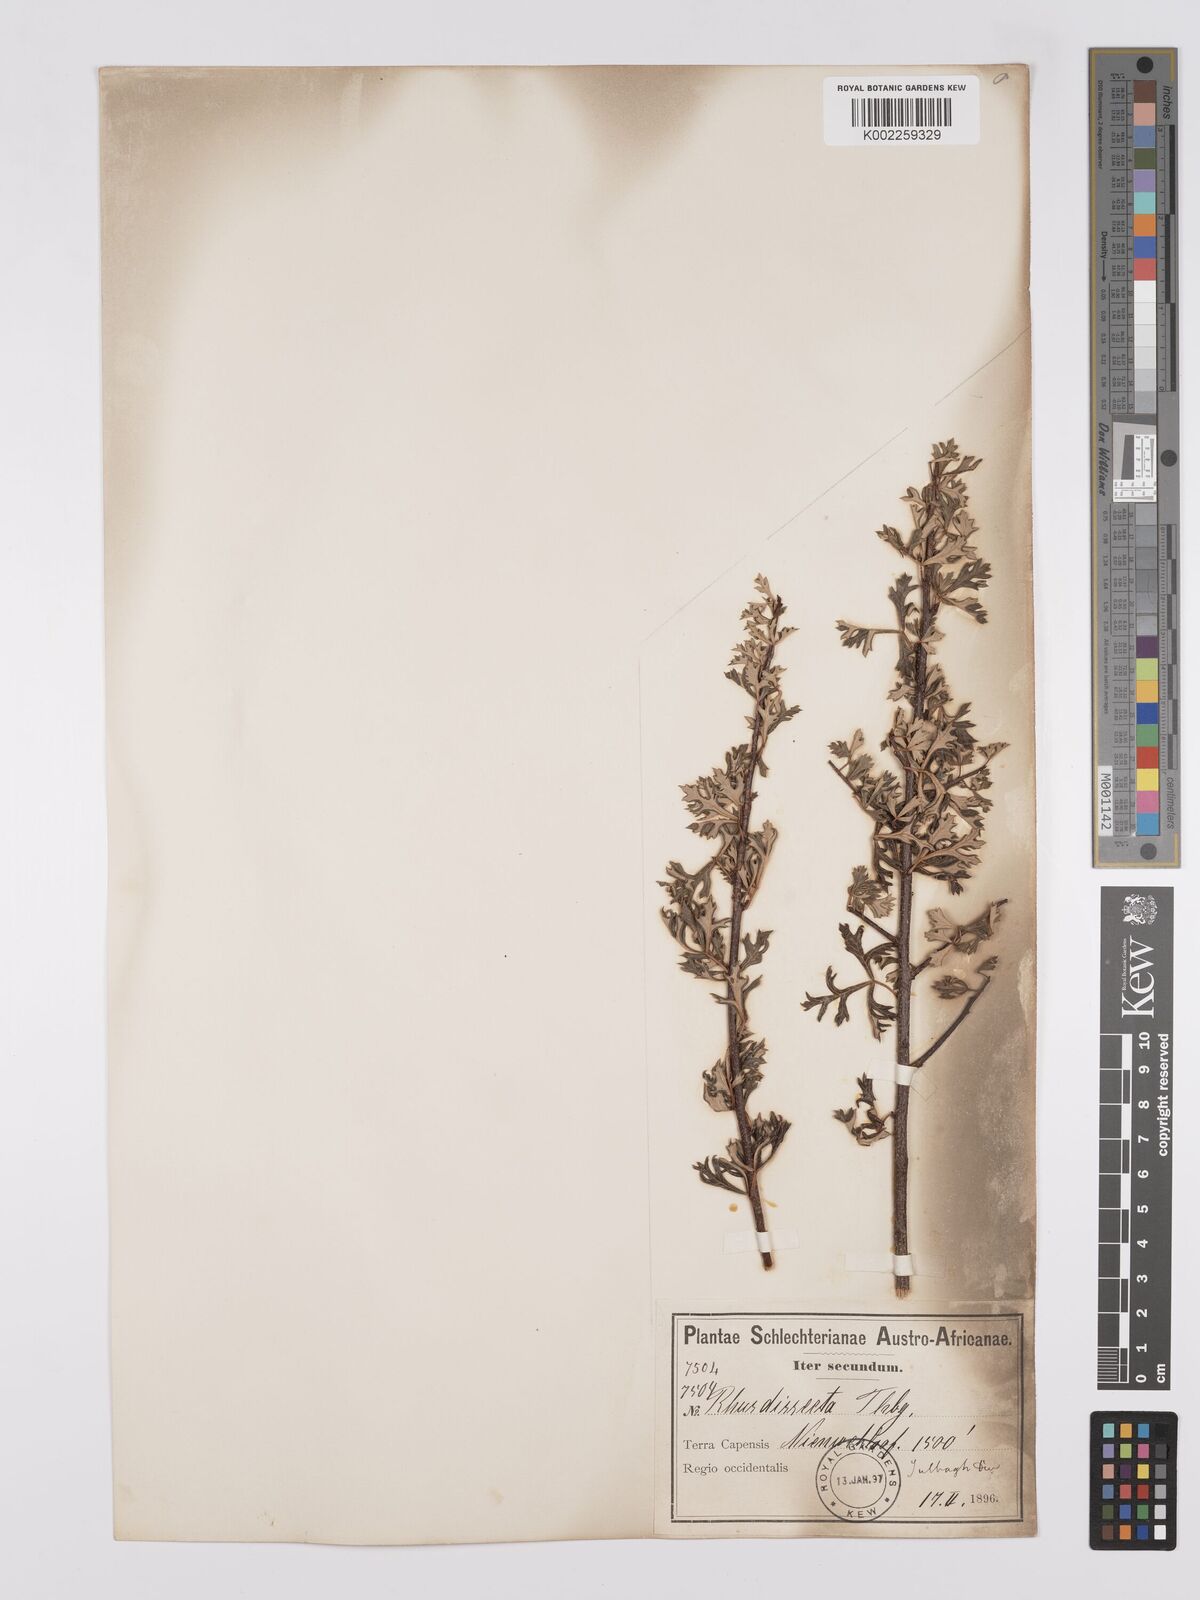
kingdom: Plantae
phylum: Tracheophyta
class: Magnoliopsida
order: Sapindales
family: Anacardiaceae
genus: Searsia
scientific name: Searsia dissecta
